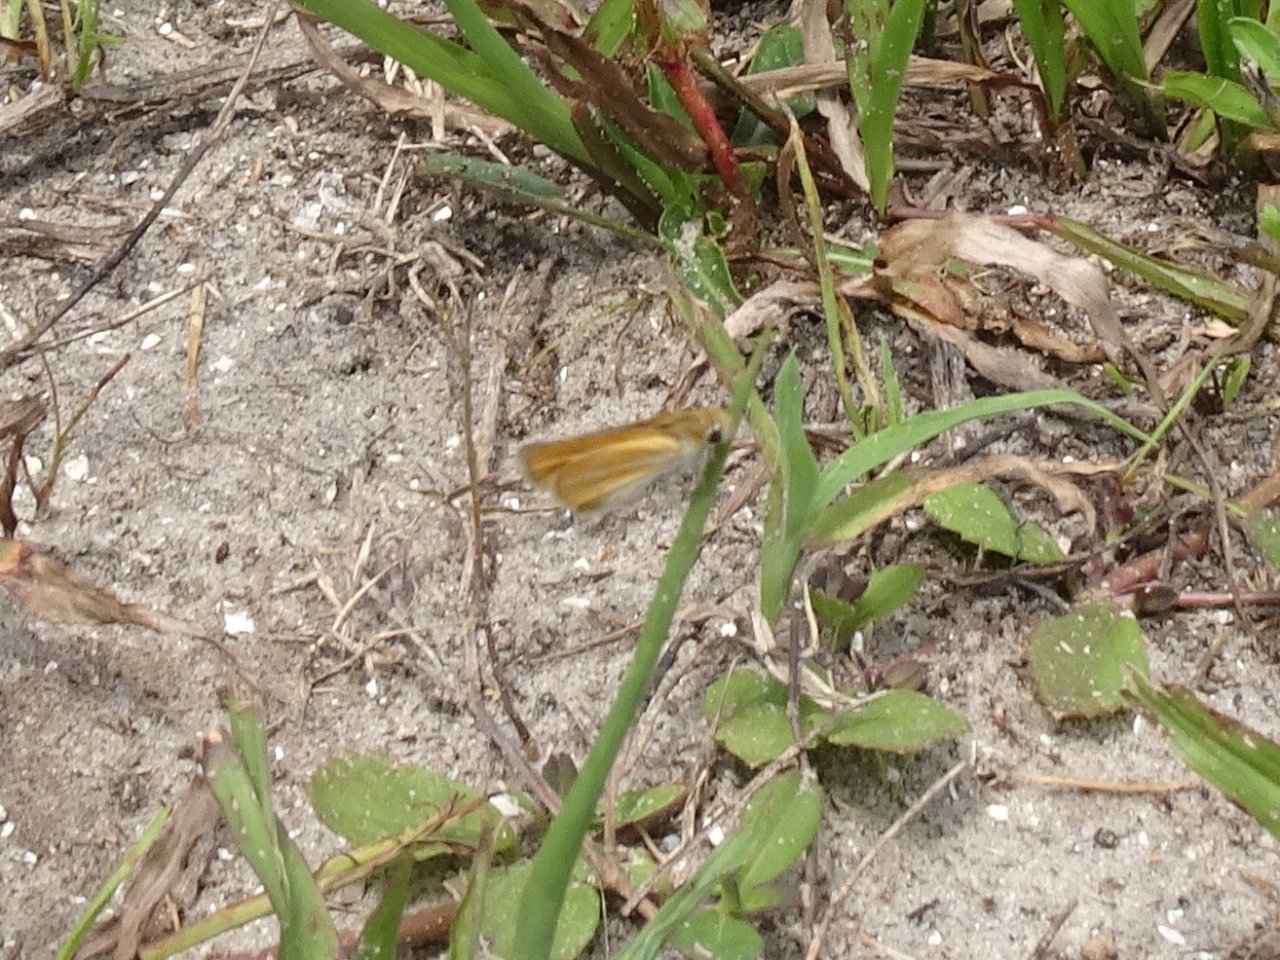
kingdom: Animalia
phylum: Arthropoda
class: Insecta
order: Lepidoptera
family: Hesperiidae
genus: Copaeodes
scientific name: Copaeodes minima
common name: Southern Skipperling
